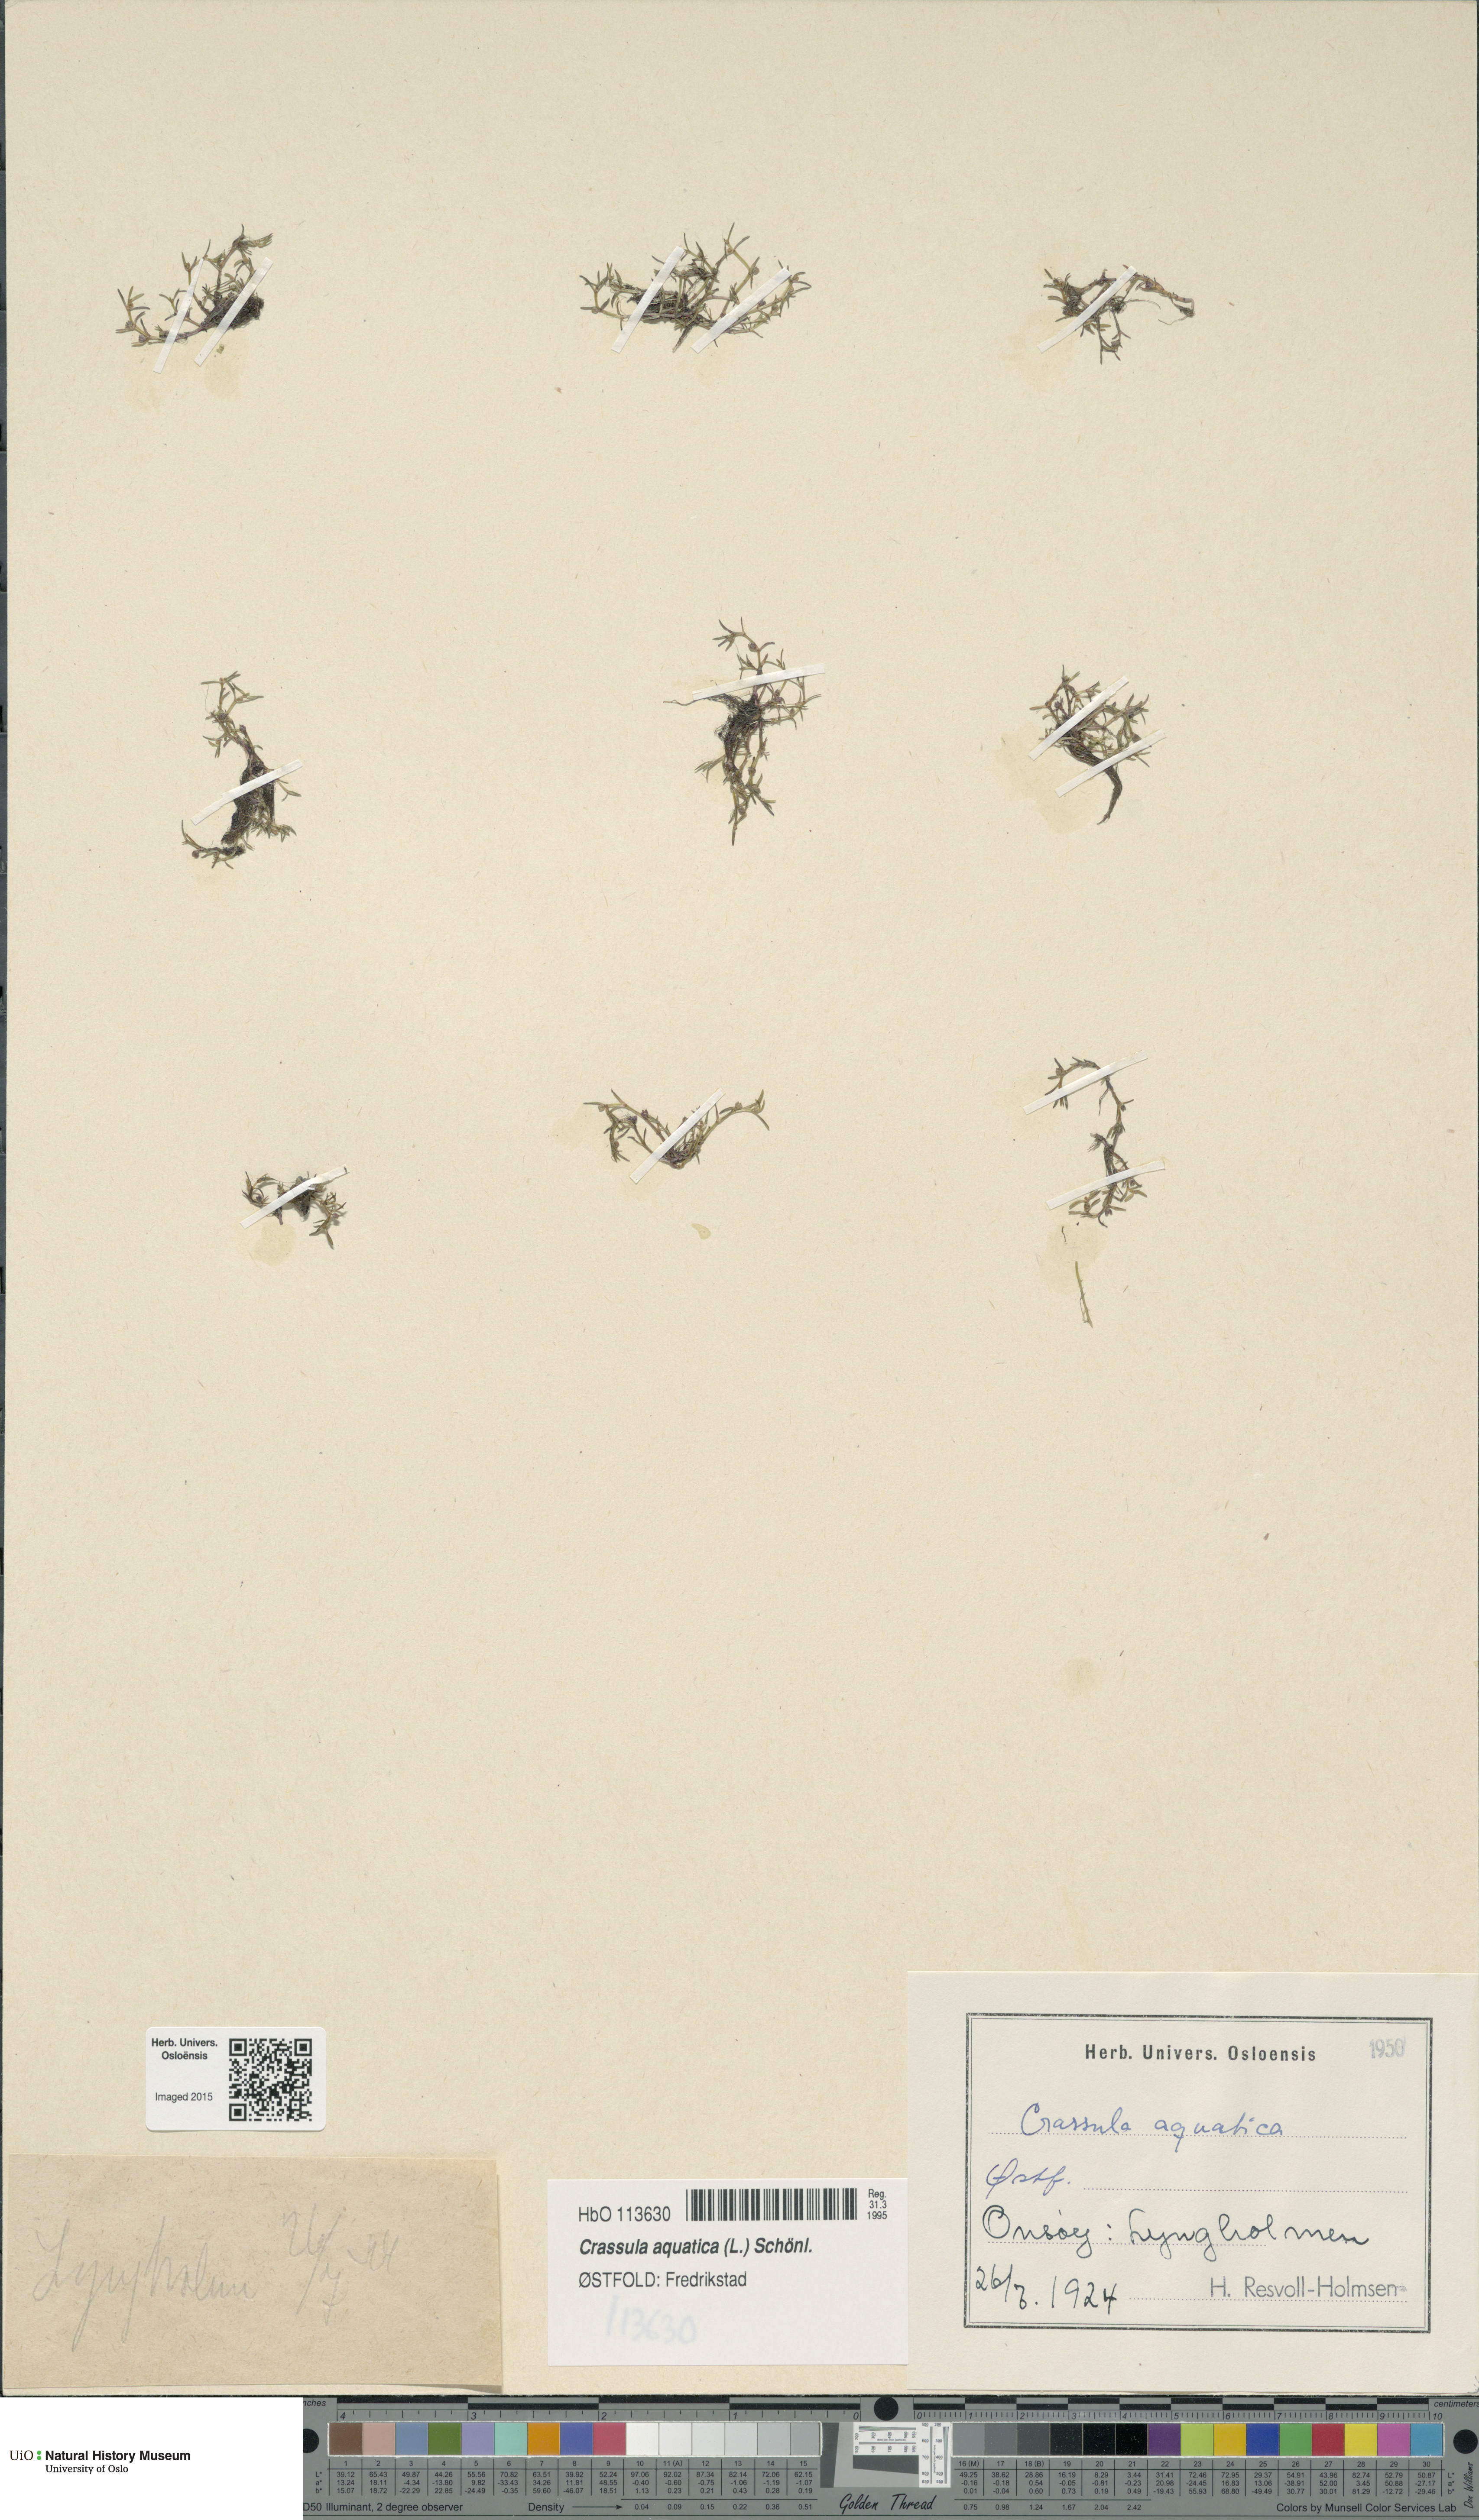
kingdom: Plantae
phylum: Tracheophyta
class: Magnoliopsida
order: Saxifragales
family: Crassulaceae
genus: Crassula
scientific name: Crassula aquatica
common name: Pigmyweed
